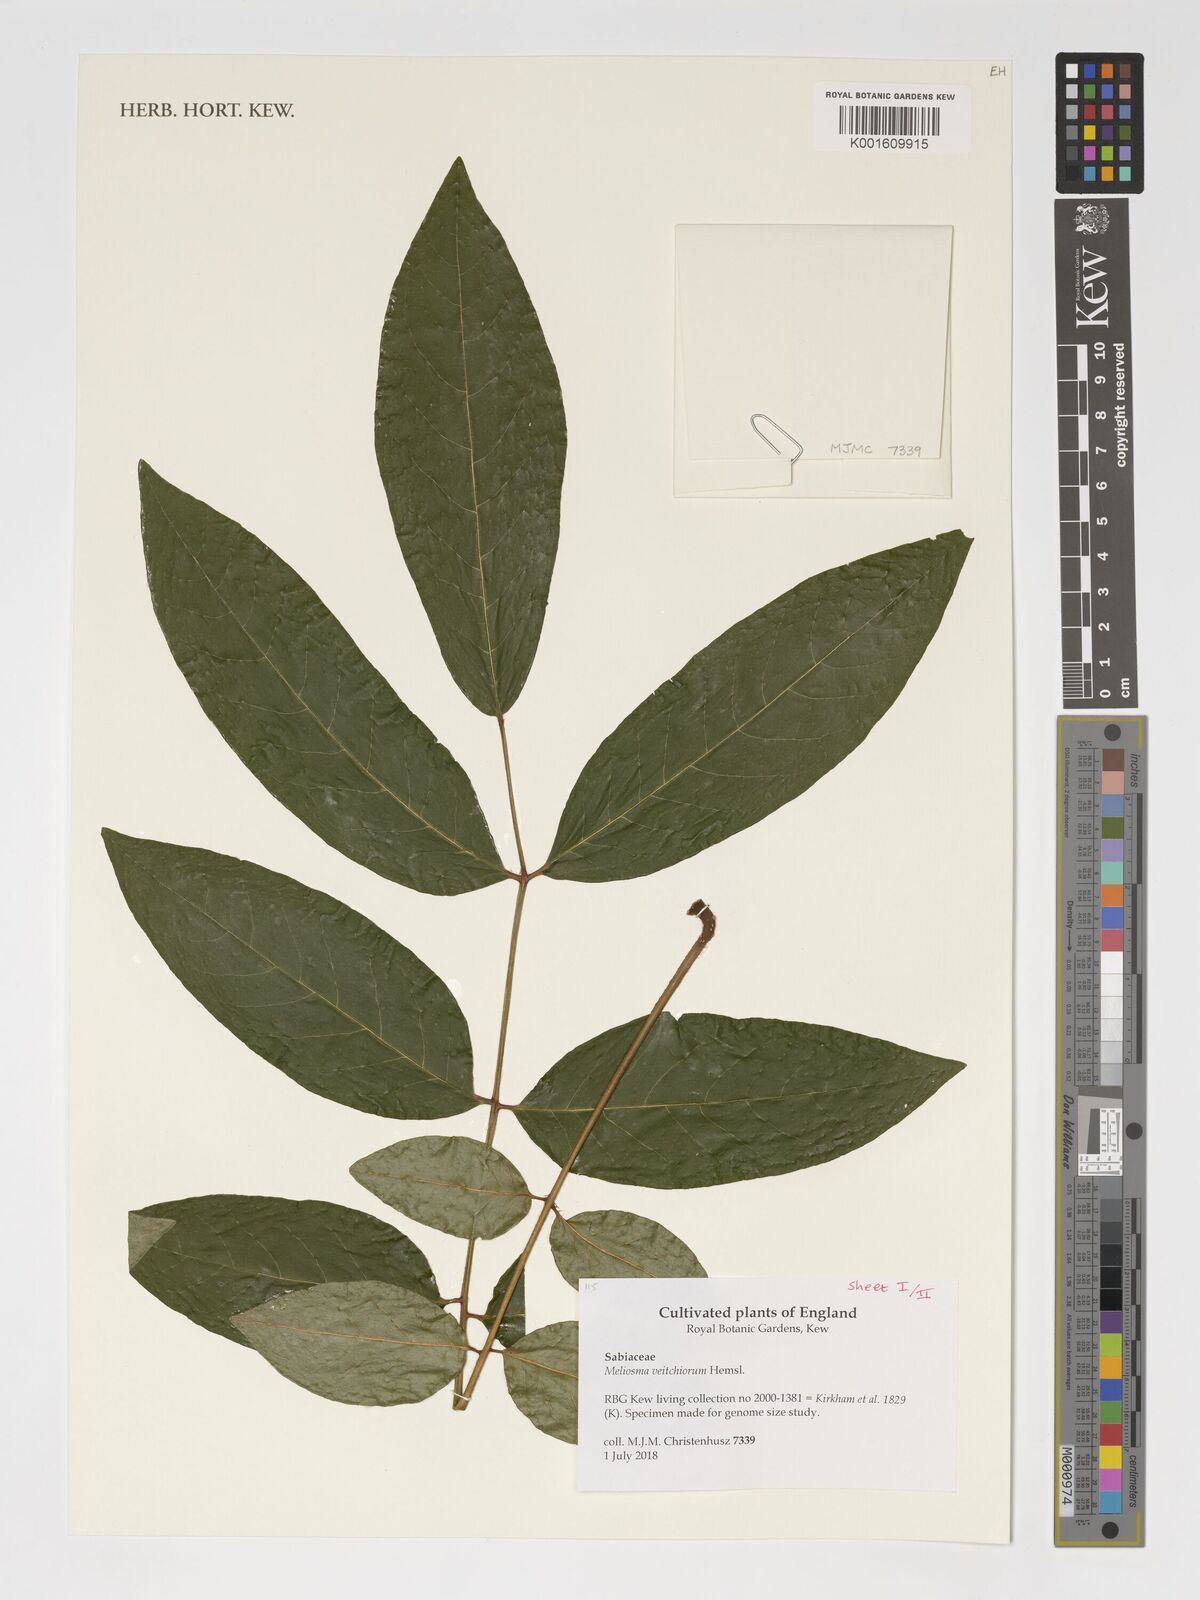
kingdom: Plantae
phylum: Tracheophyta
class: Magnoliopsida
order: Proteales
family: Sabiaceae
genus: Meliosma
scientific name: Meliosma veitchiorum
